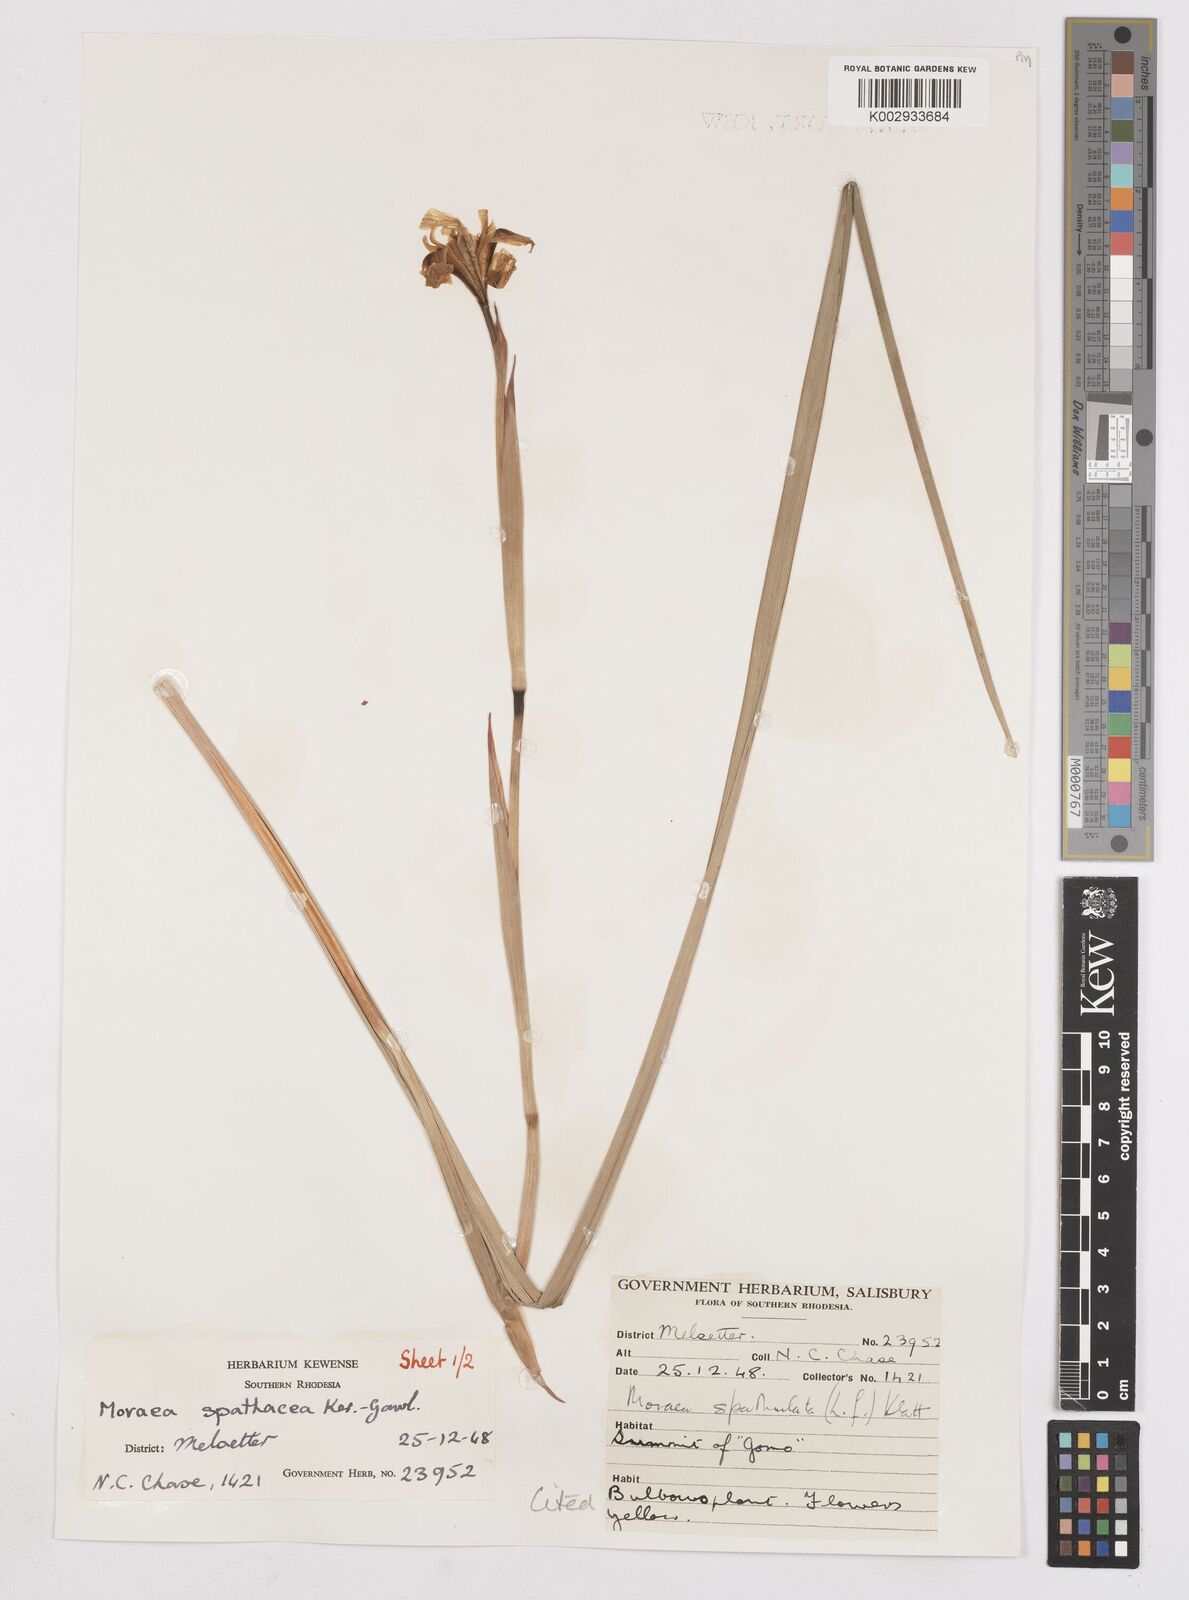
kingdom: Plantae
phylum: Tracheophyta
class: Liliopsida
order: Asparagales
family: Iridaceae
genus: Moraea
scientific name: Moraea spathulata
